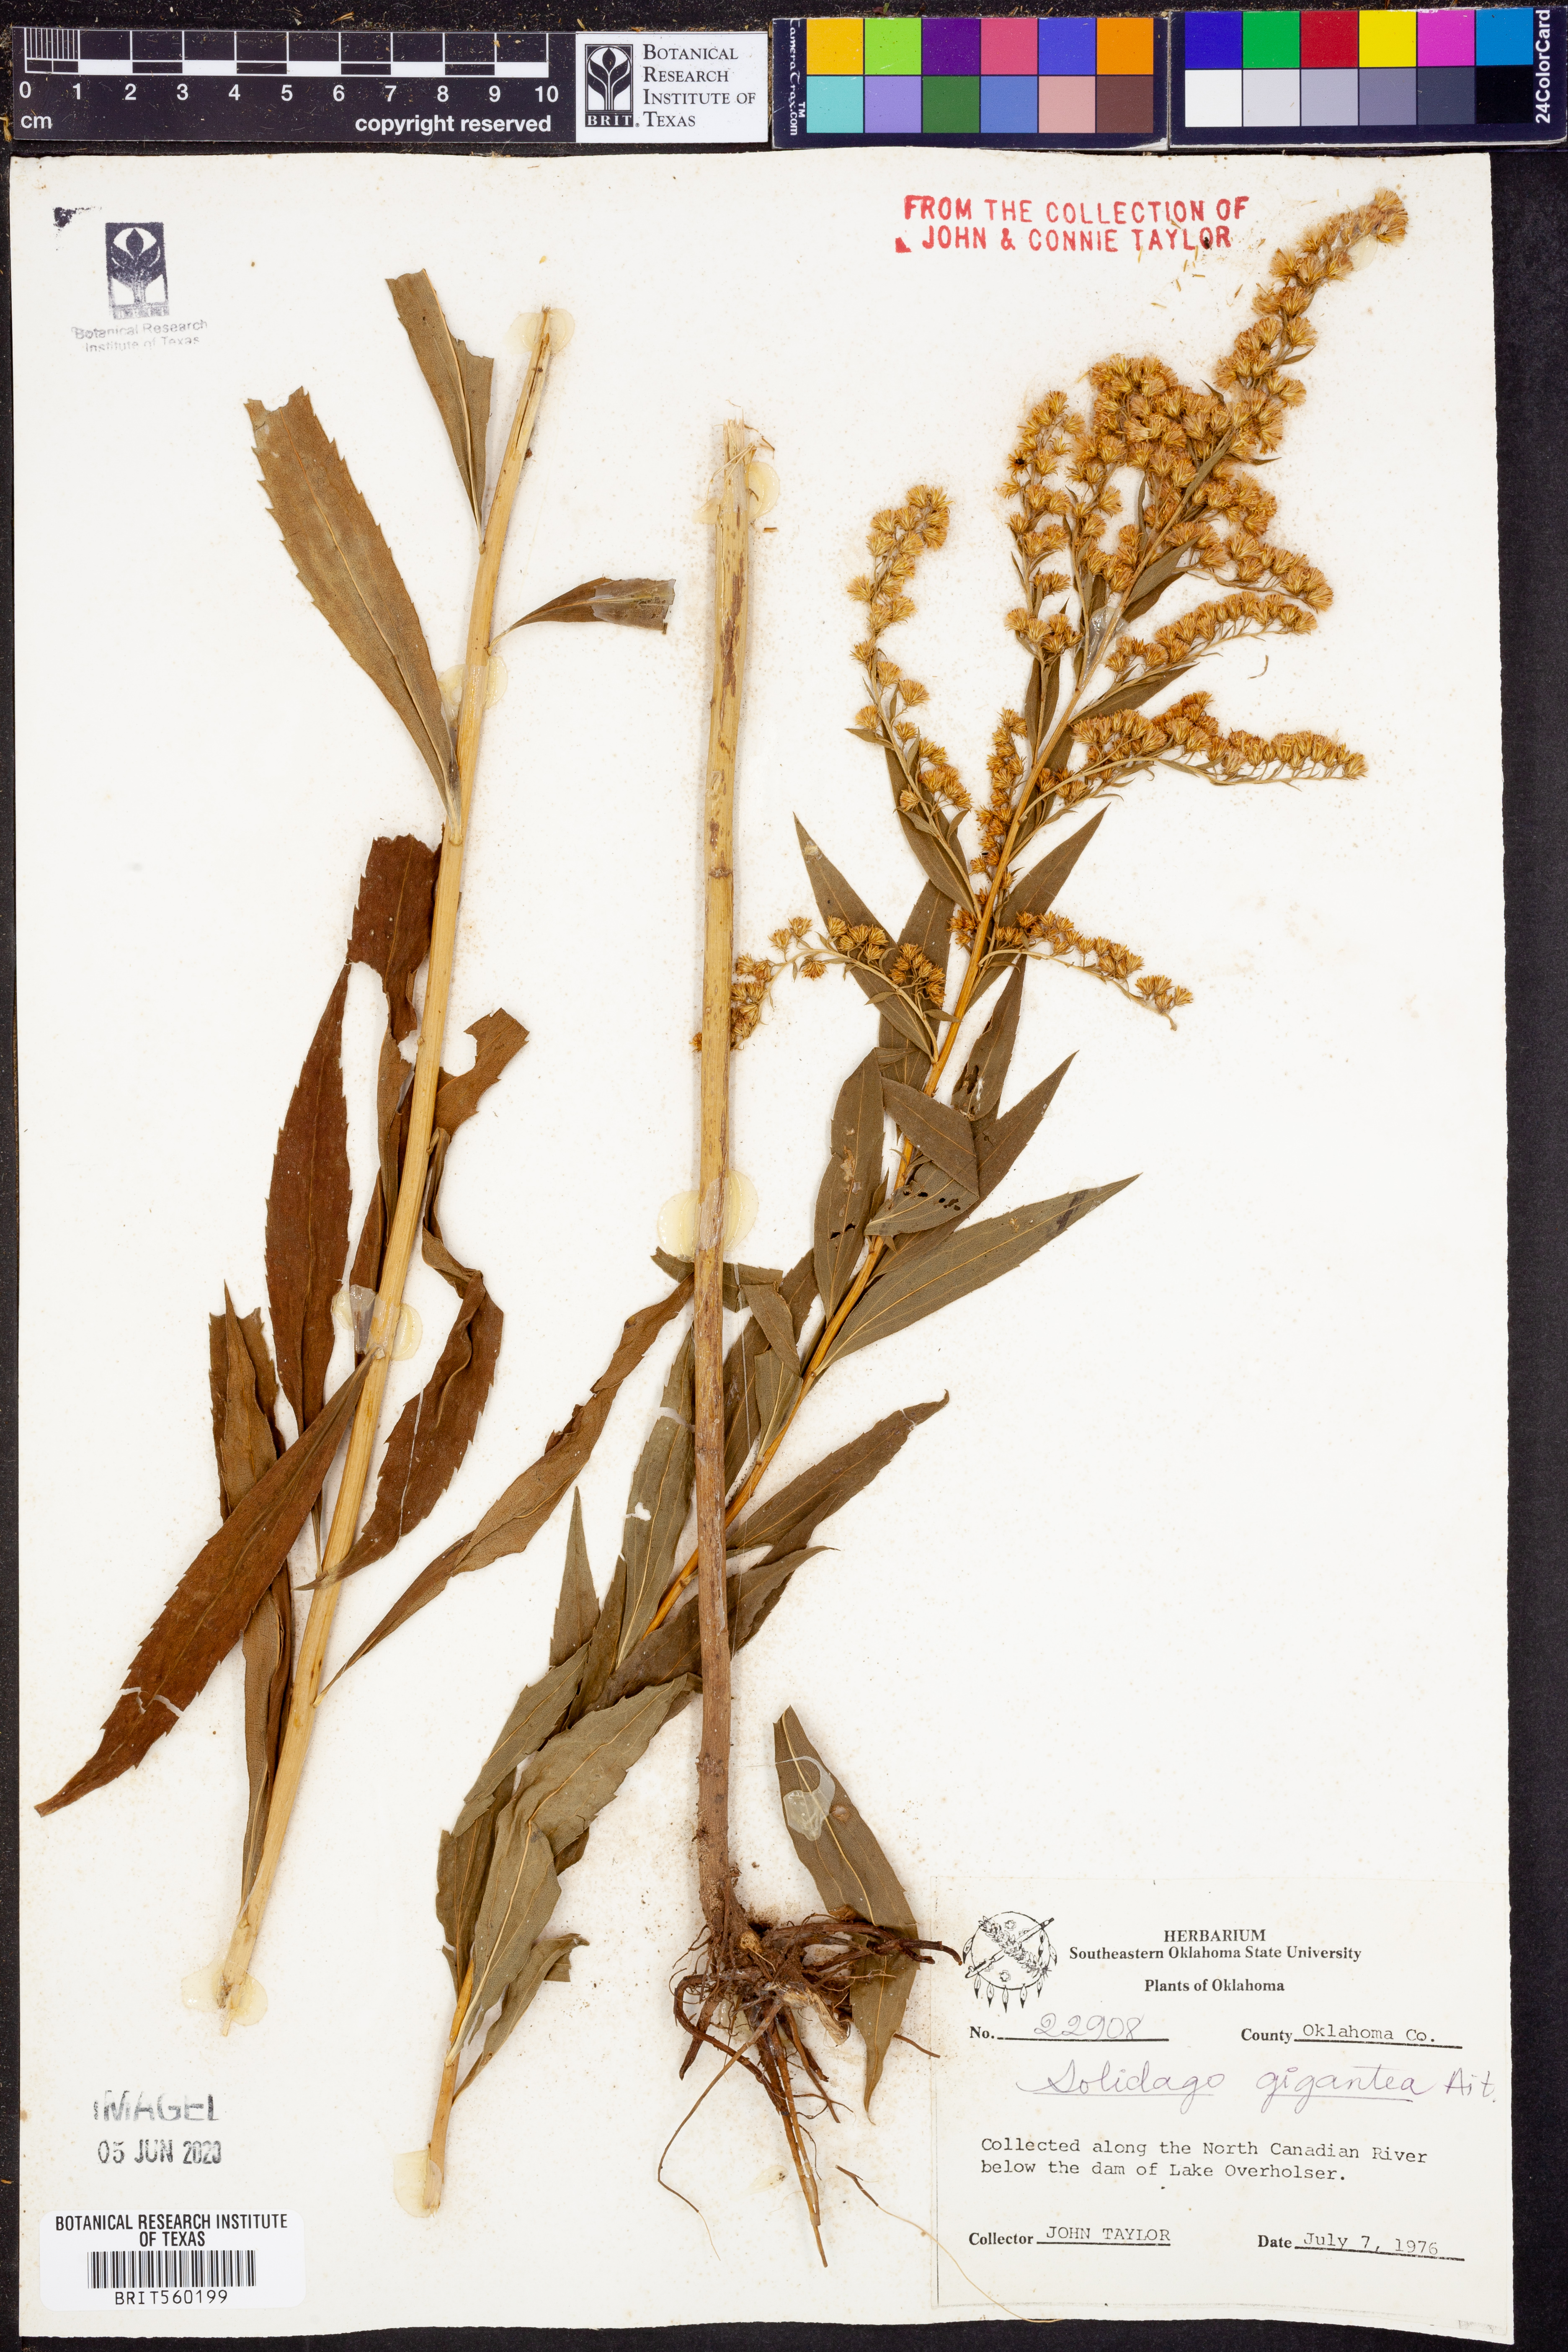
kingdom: Plantae
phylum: Tracheophyta
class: Magnoliopsida
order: Asterales
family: Asteraceae
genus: Solidago
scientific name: Solidago gigantea
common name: Giant goldenrod
